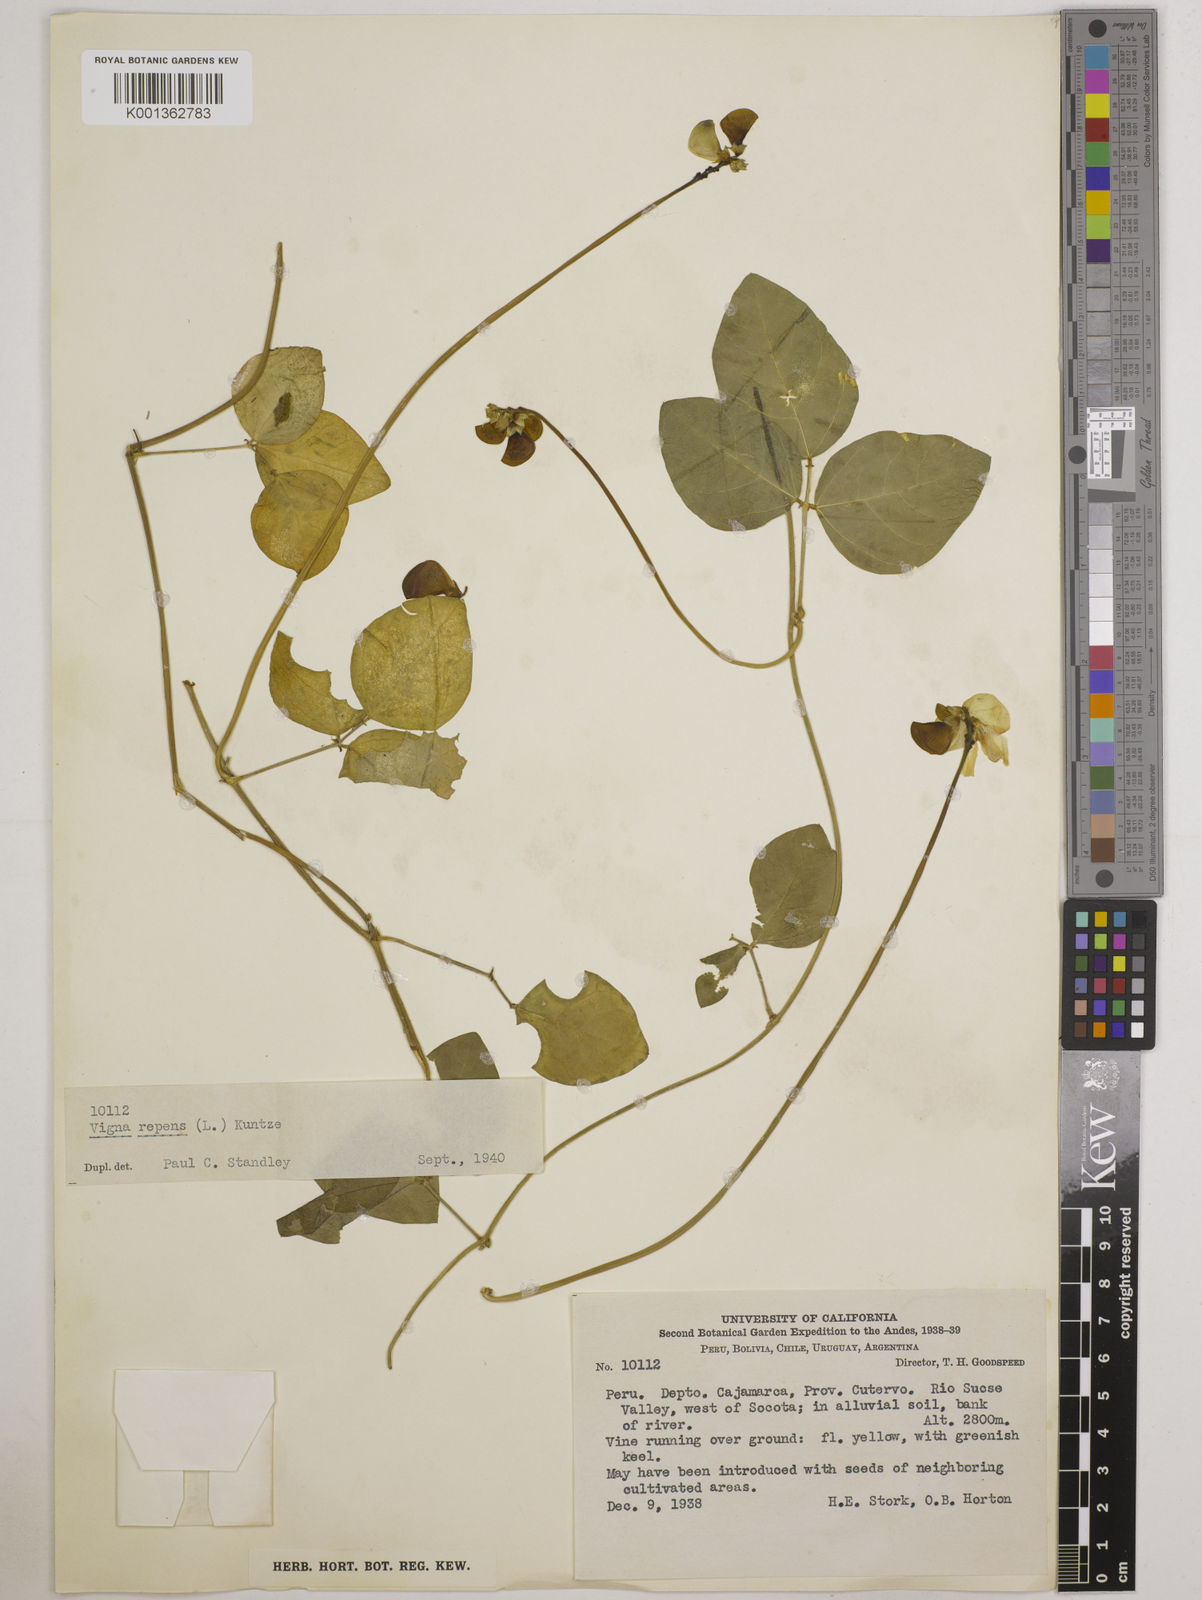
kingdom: Plantae
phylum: Tracheophyta
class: Magnoliopsida
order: Fabales
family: Fabaceae
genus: Vigna
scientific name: Vigna luteola
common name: Hairypod cowpea
